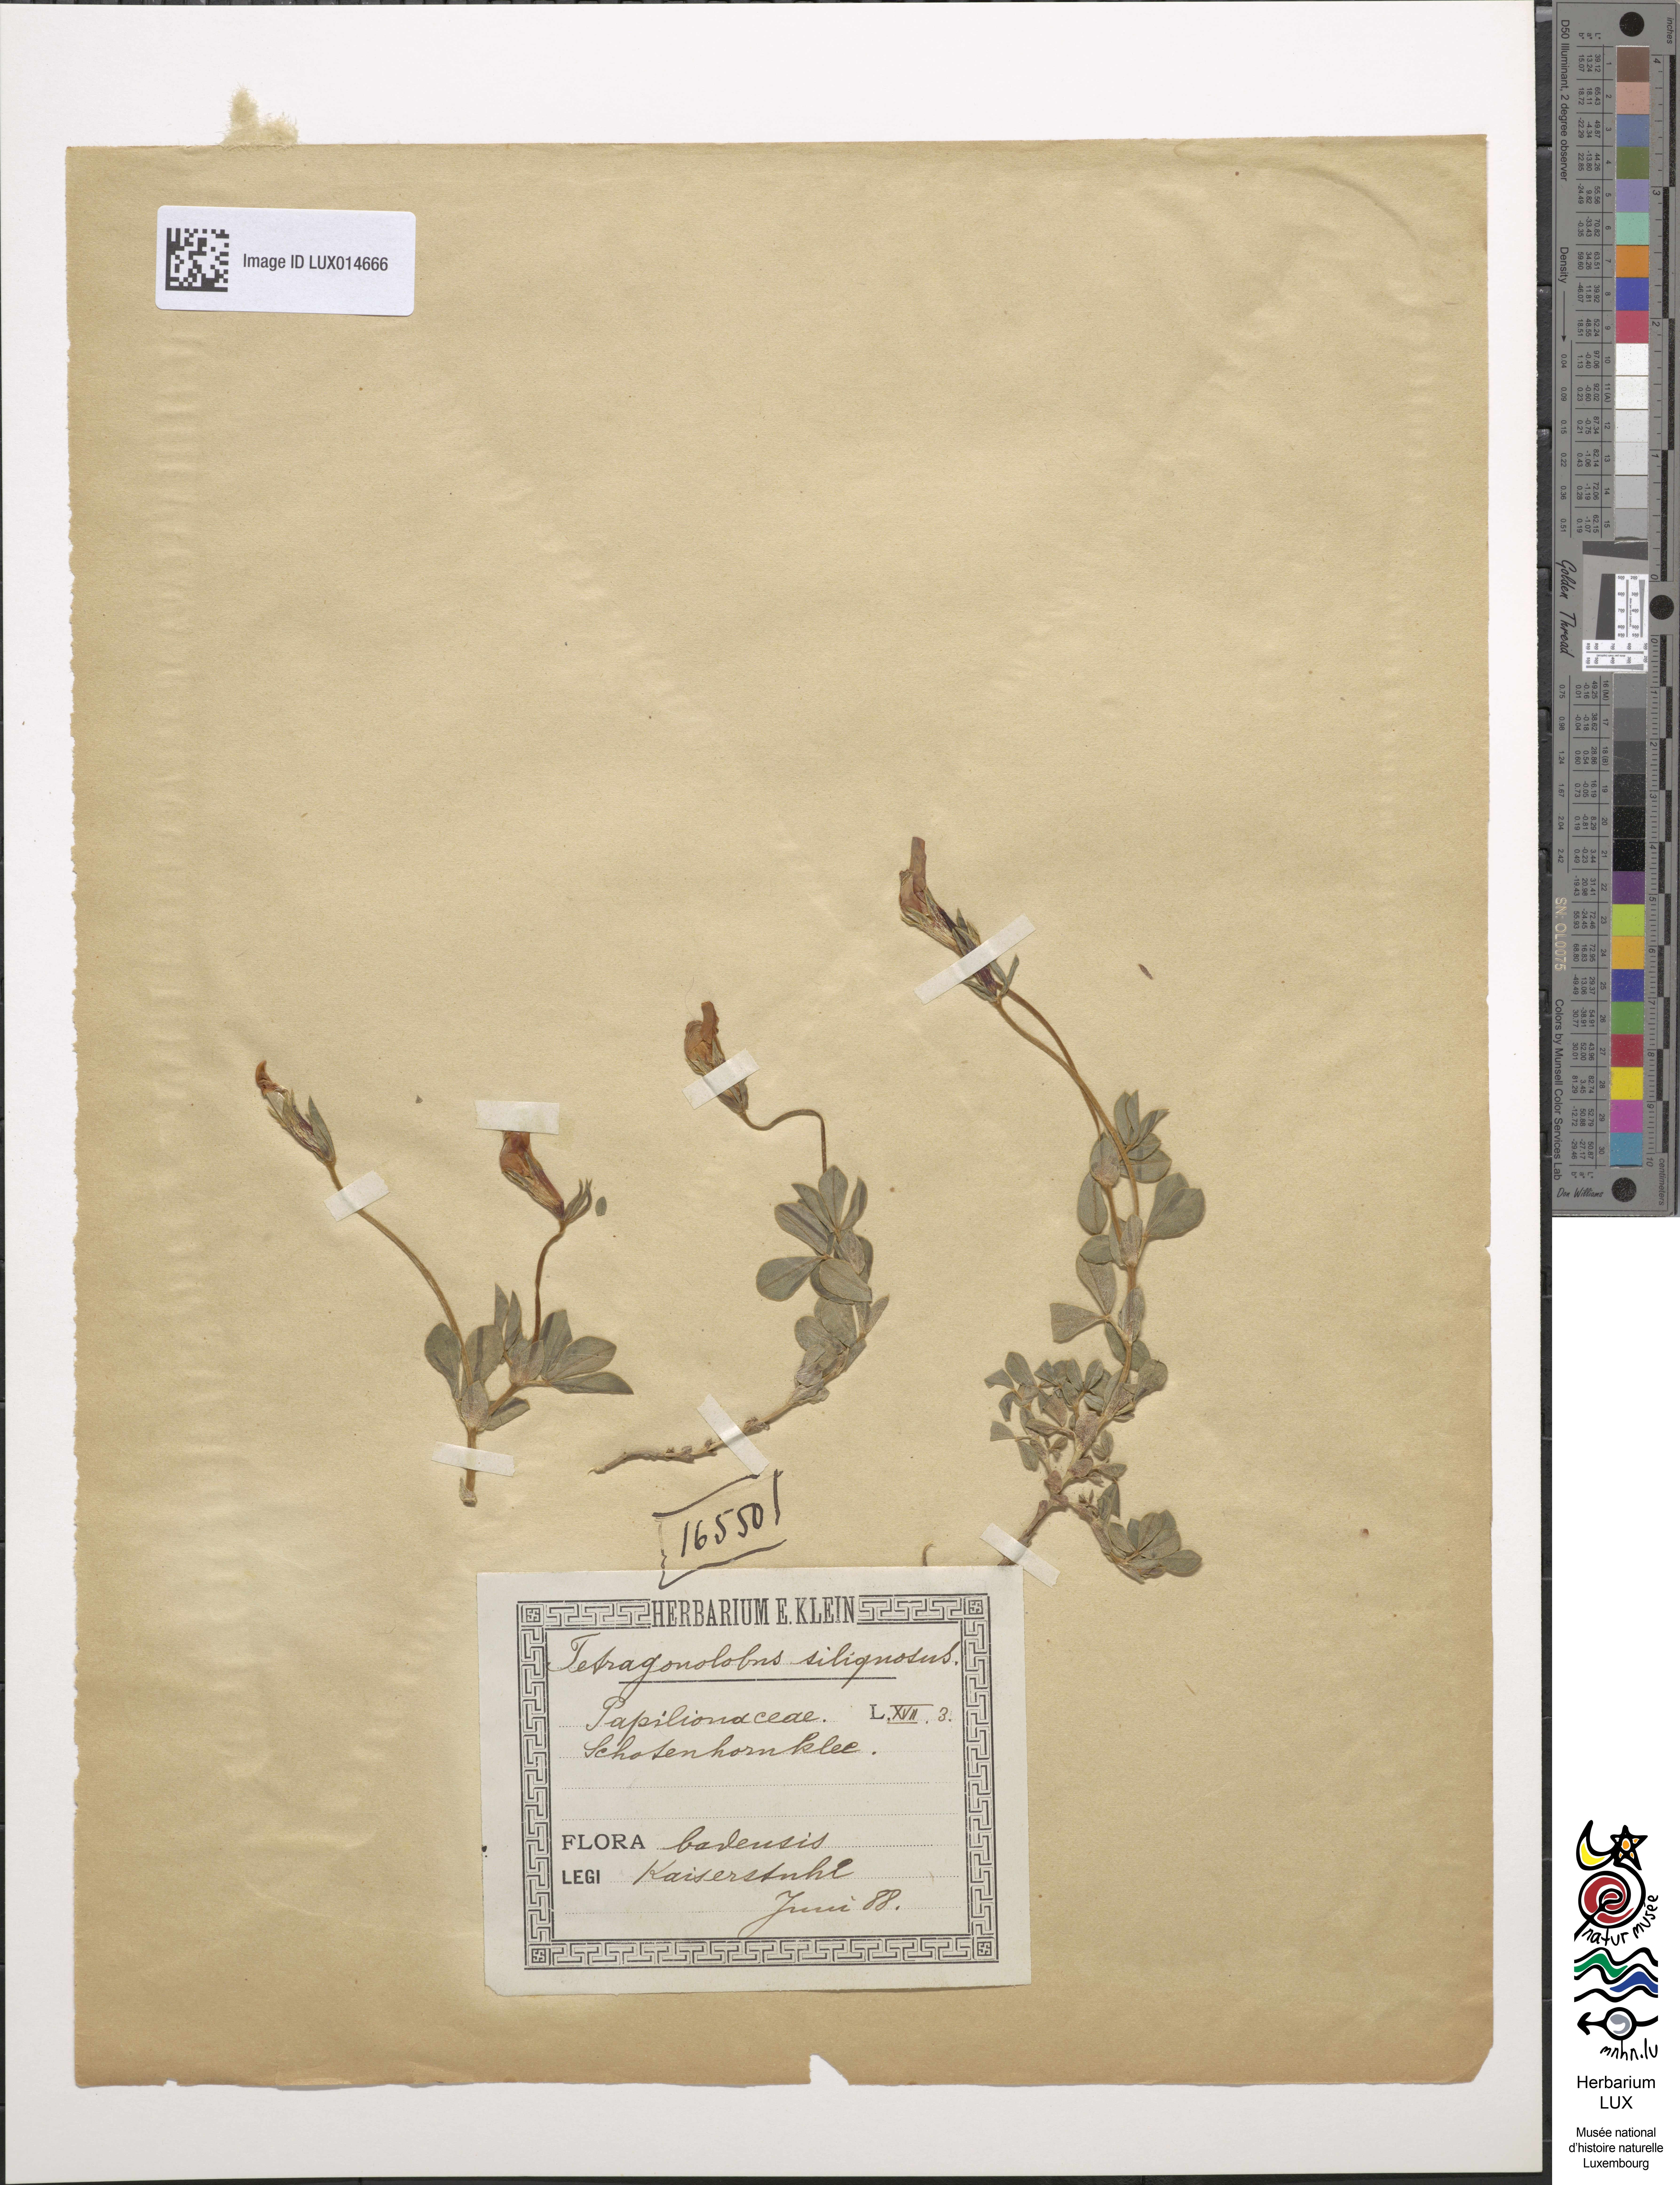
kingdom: Plantae
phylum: Tracheophyta
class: Magnoliopsida
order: Fabales
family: Fabaceae
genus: Lotus
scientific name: Lotus maritimus
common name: Dragon's-teeth
